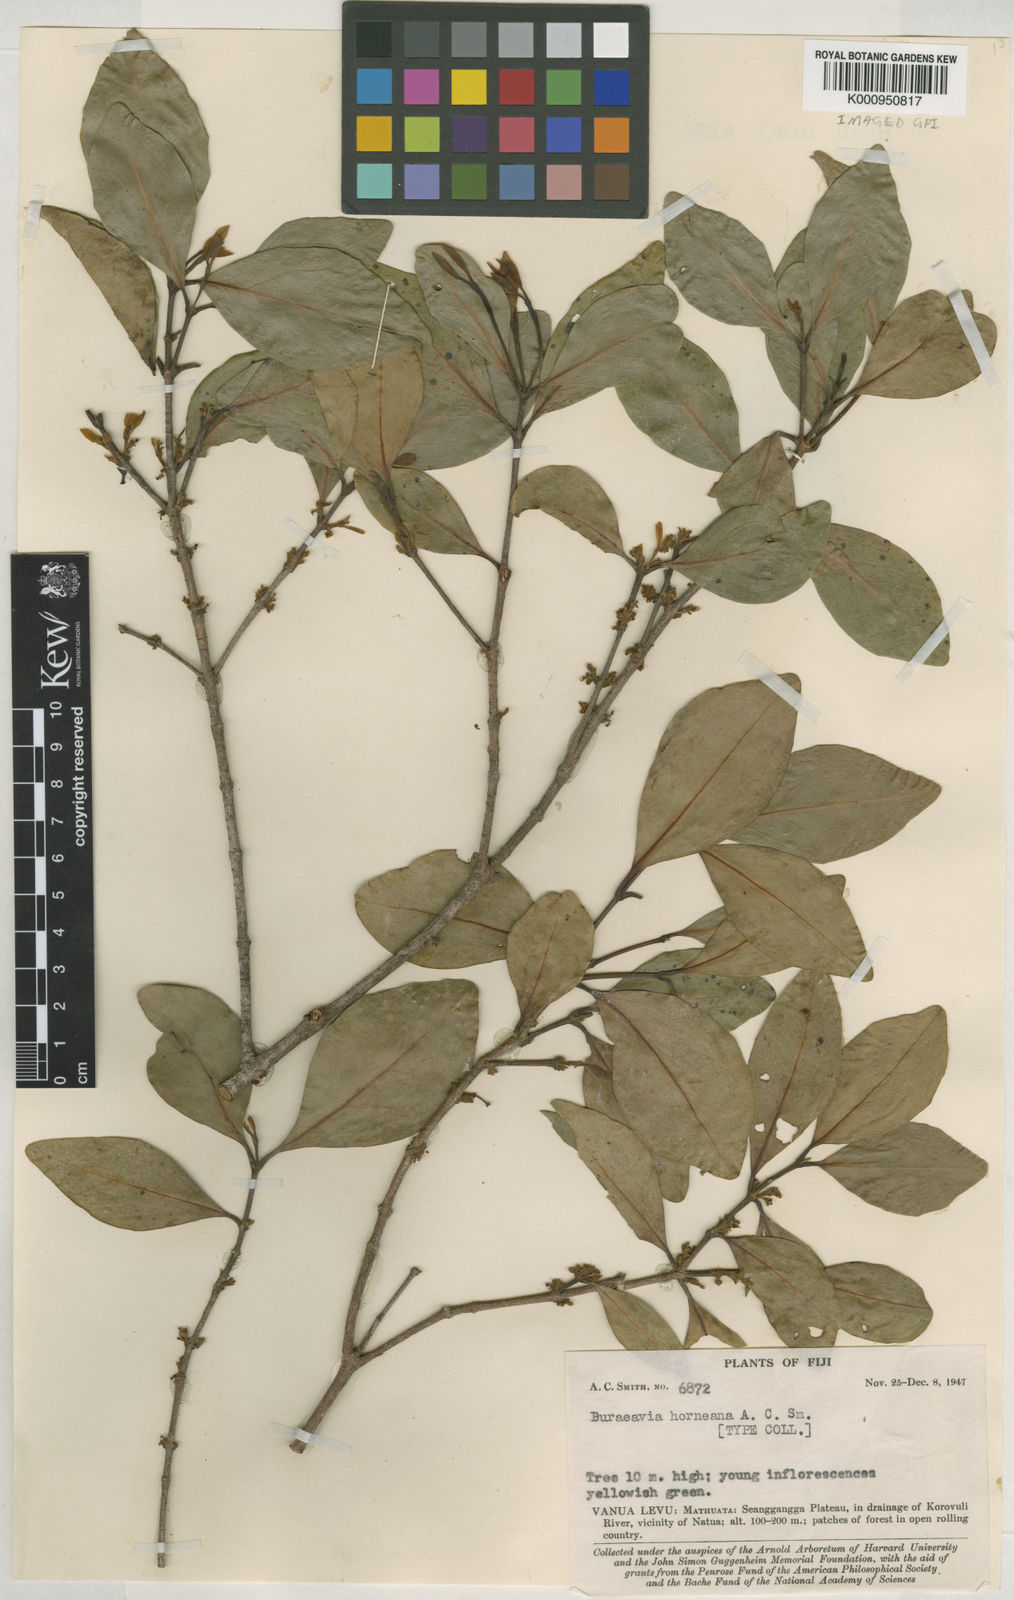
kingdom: Plantae
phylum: Tracheophyta
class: Magnoliopsida
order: Malpighiales
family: Picrodendraceae
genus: Austrobuxus
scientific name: Austrobuxus horneanus
